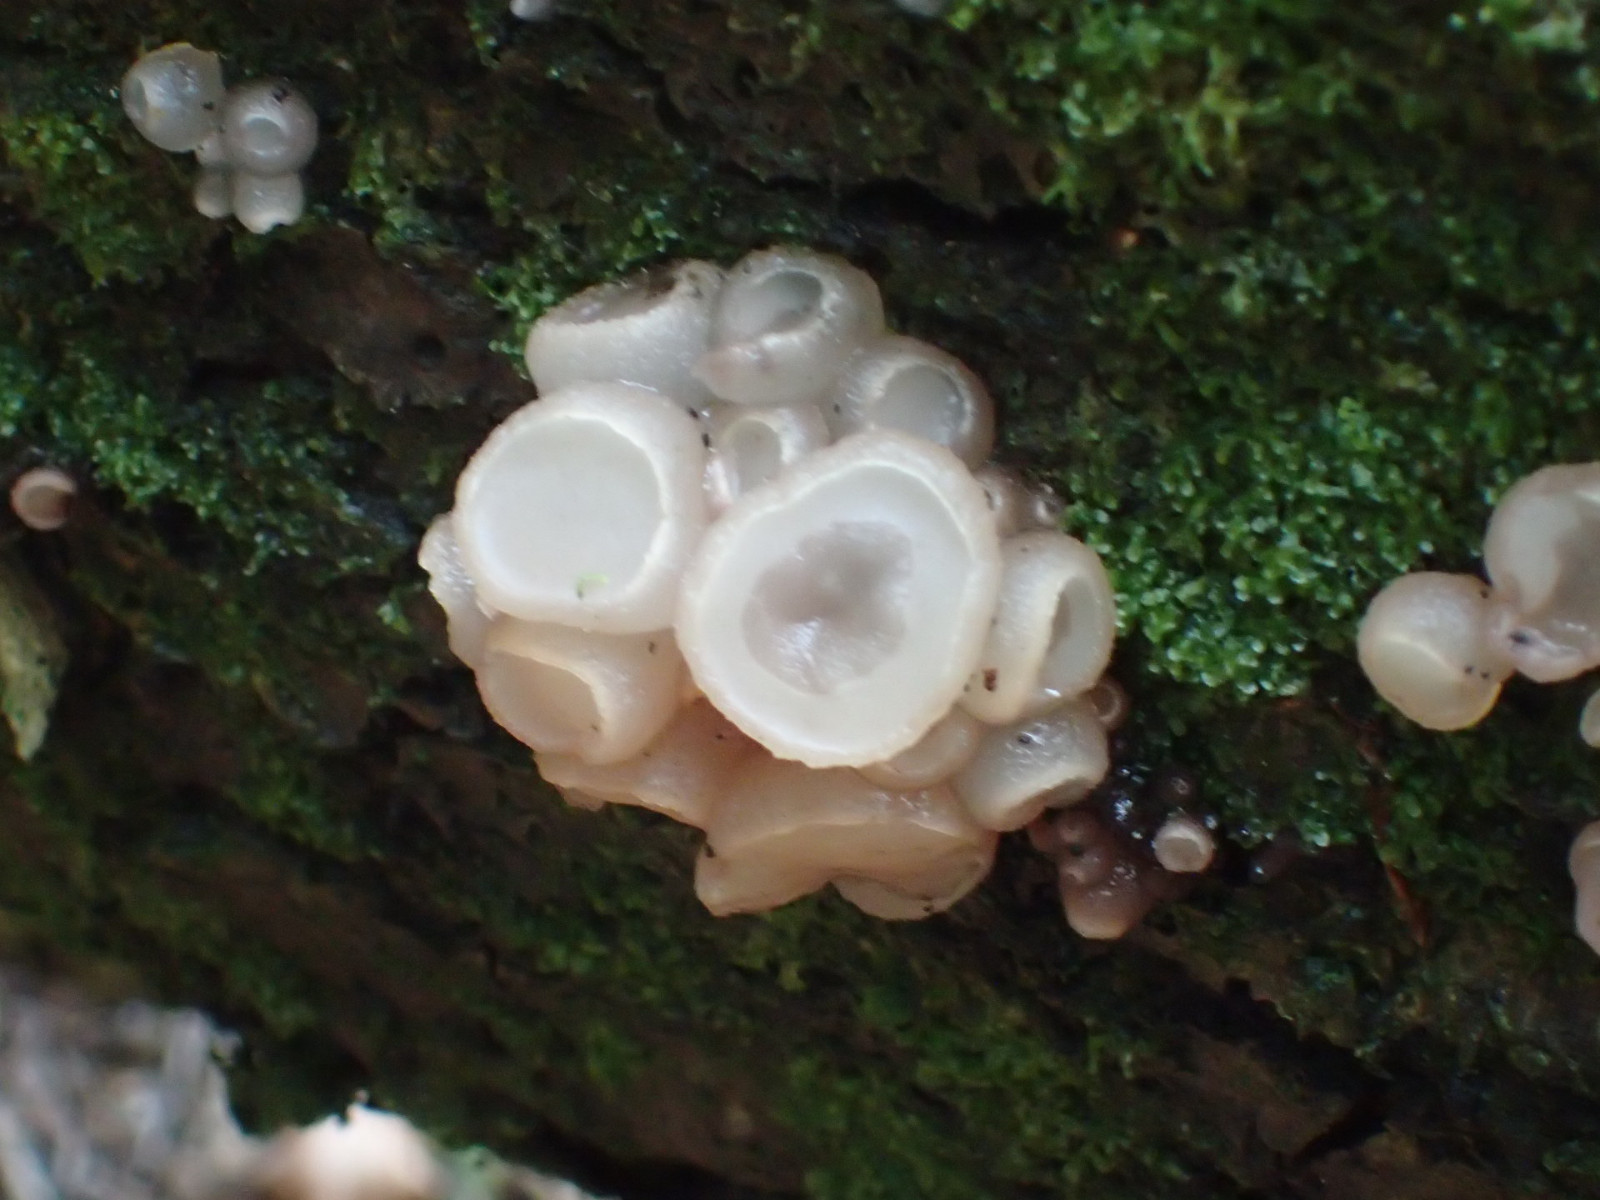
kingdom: Fungi
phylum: Ascomycota
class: Leotiomycetes
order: Helotiales
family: Gelatinodiscaceae
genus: Neobulgaria
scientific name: Neobulgaria pura
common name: bleg bævreskive
